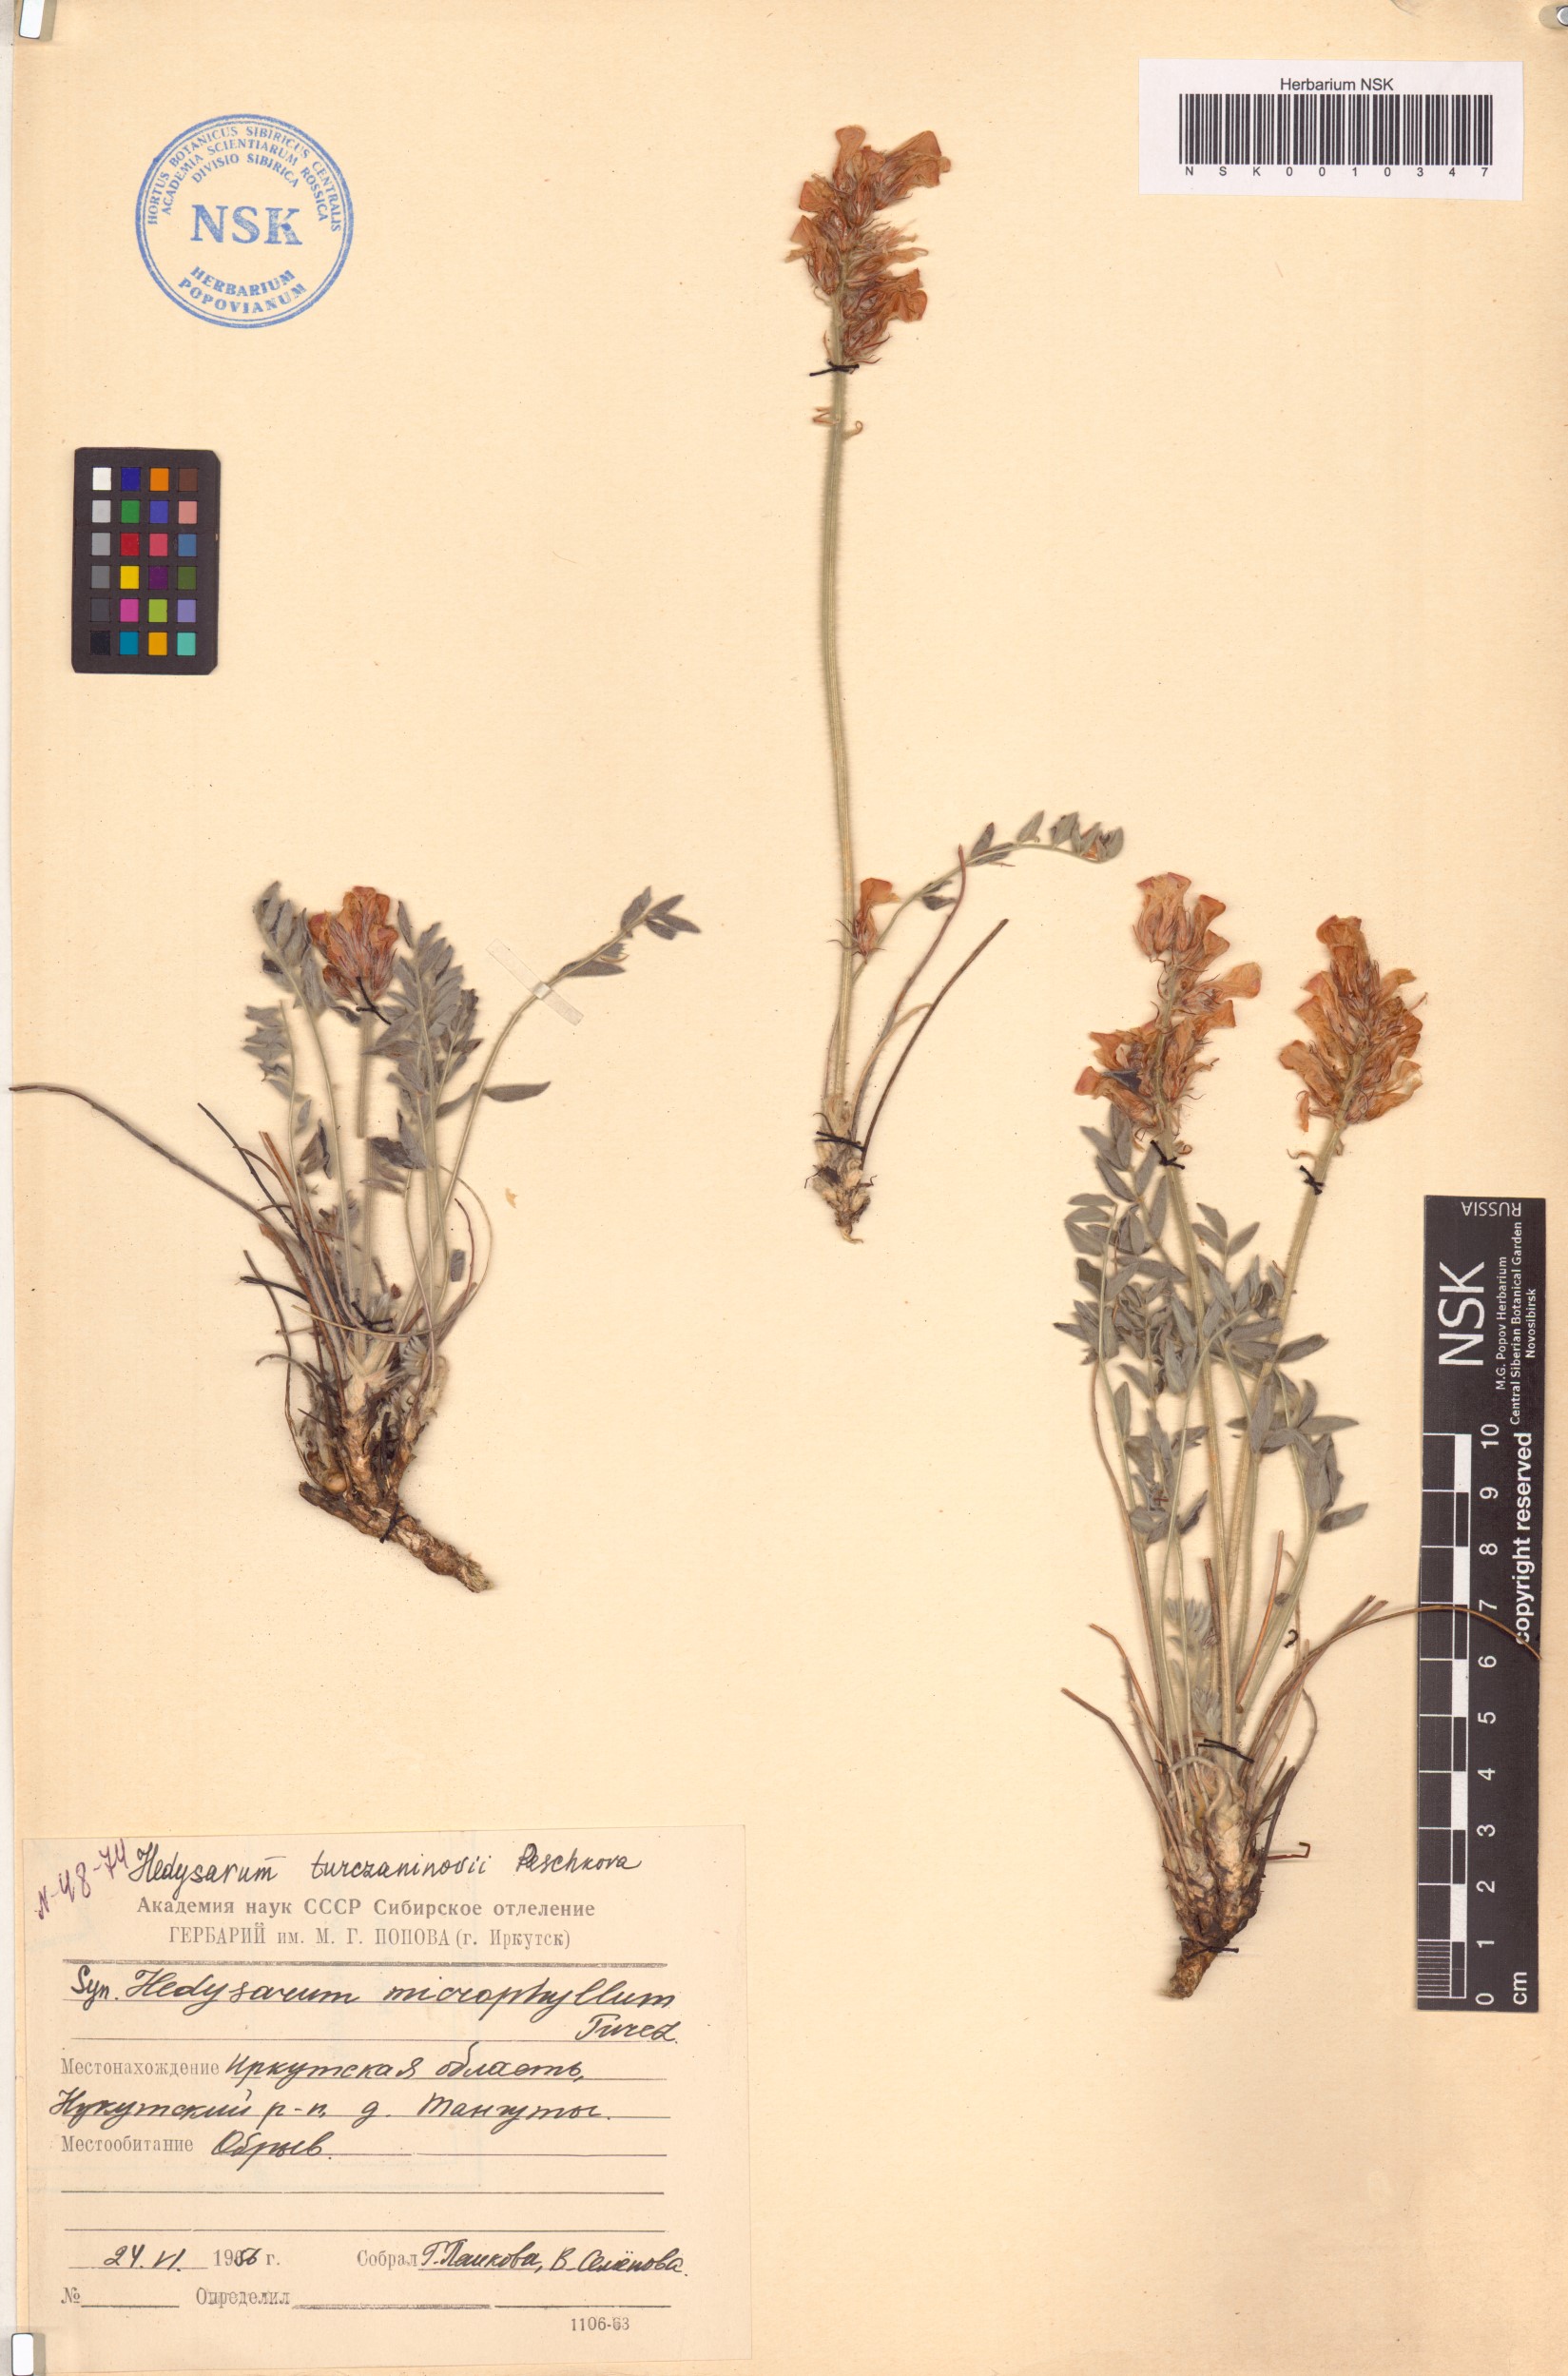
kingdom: Plantae
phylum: Tracheophyta
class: Magnoliopsida
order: Fabales
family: Fabaceae
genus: Hedysarum
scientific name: Hedysarum turczaninovii
